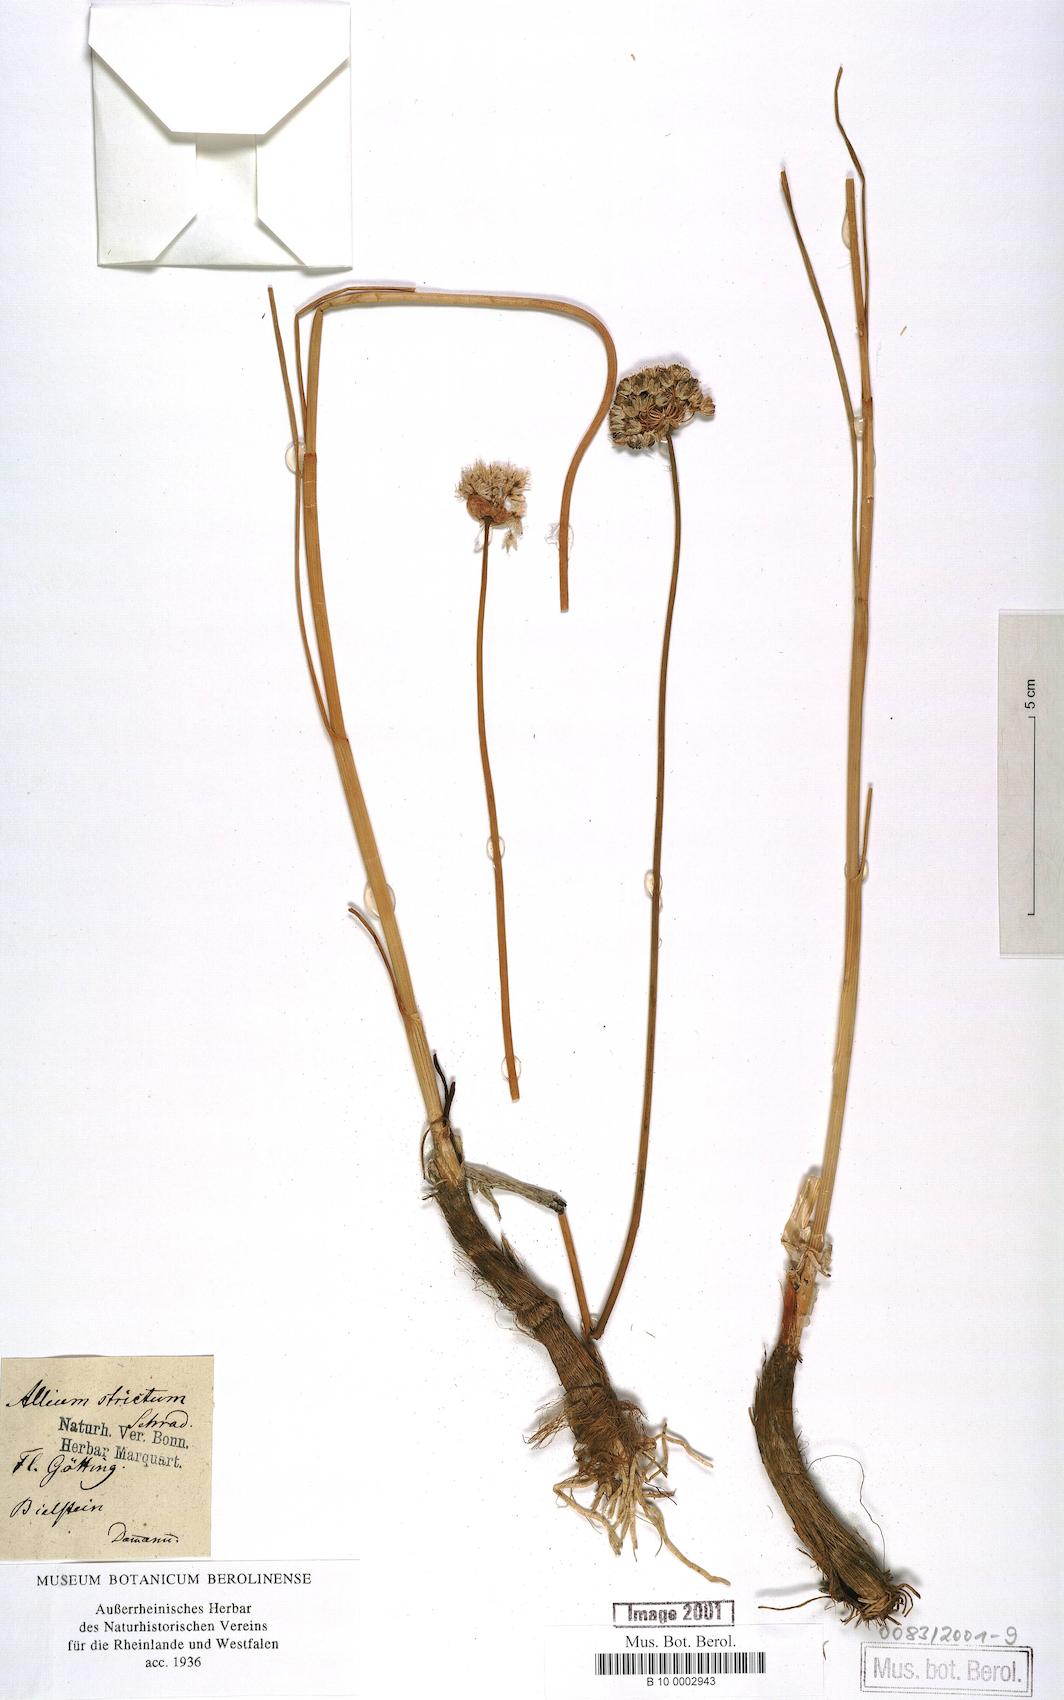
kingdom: Plantae
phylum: Tracheophyta
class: Liliopsida
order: Asparagales
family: Amaryllidaceae
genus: Allium
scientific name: Allium strictum
